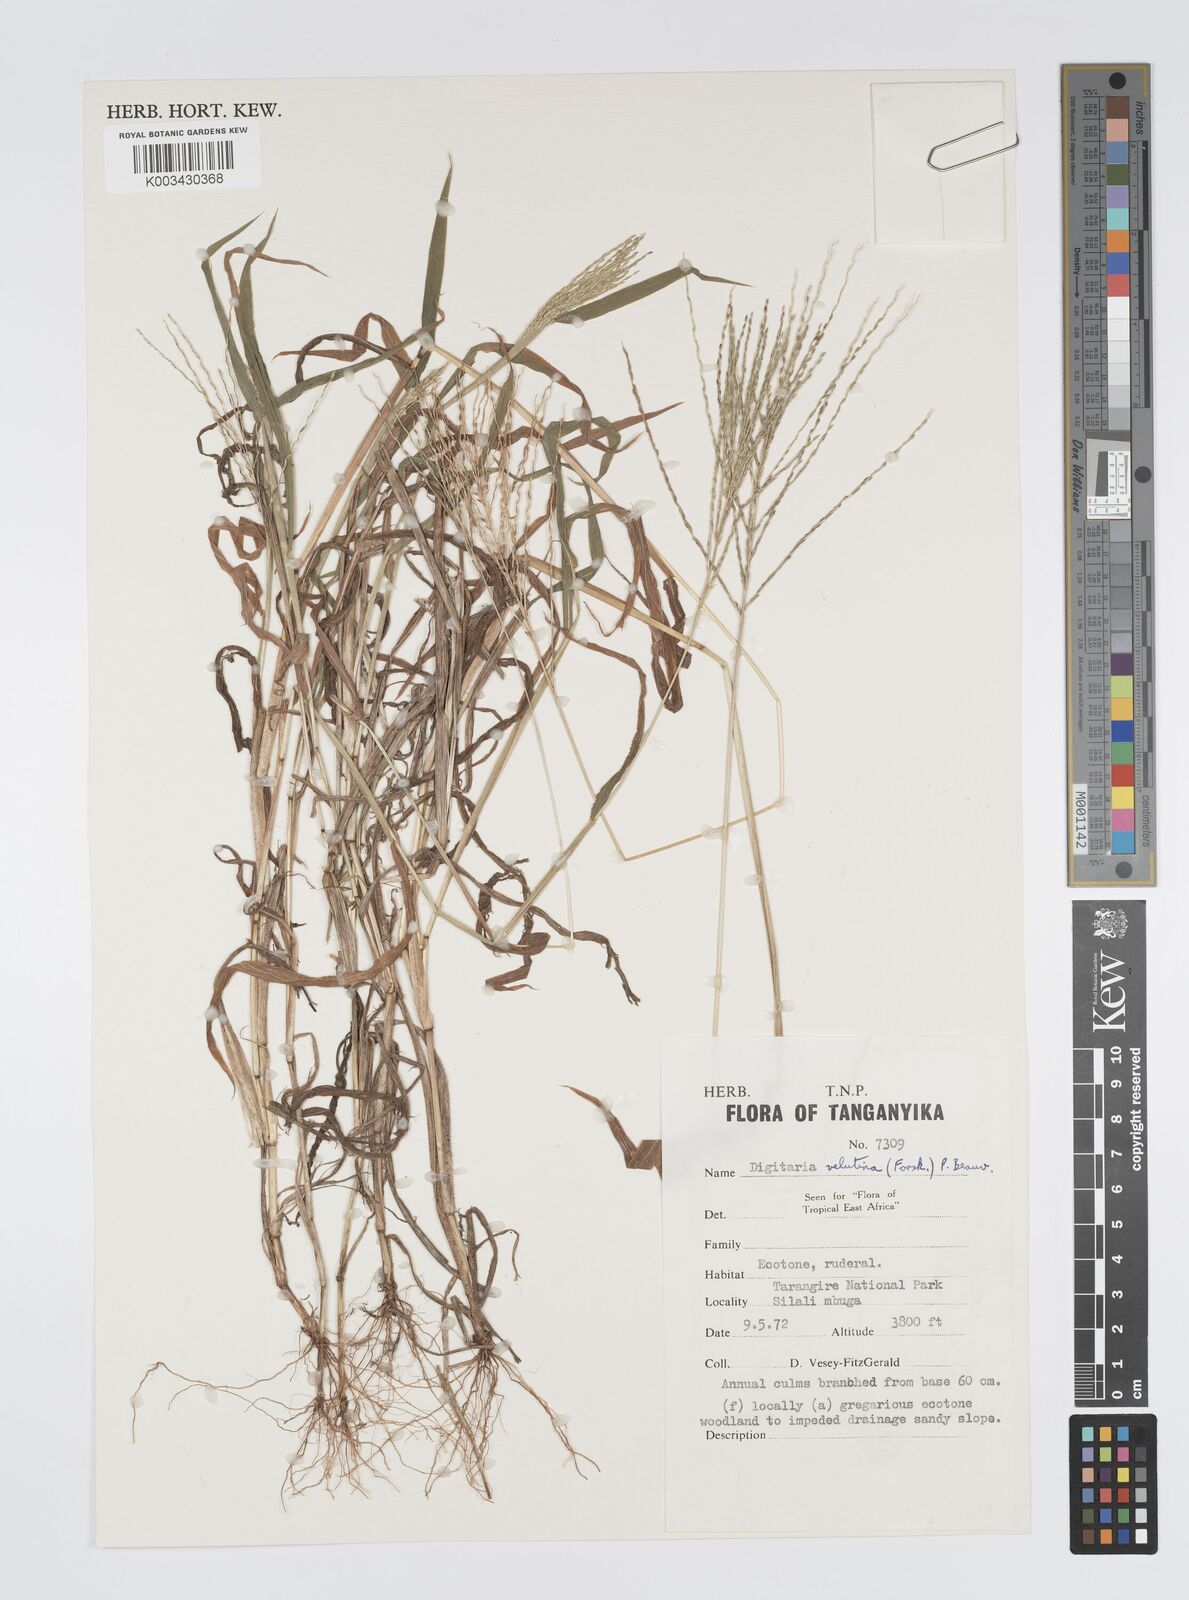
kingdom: Plantae
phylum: Tracheophyta
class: Liliopsida
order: Poales
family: Poaceae
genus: Digitaria
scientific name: Digitaria velutina
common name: Long-plume finger grass
